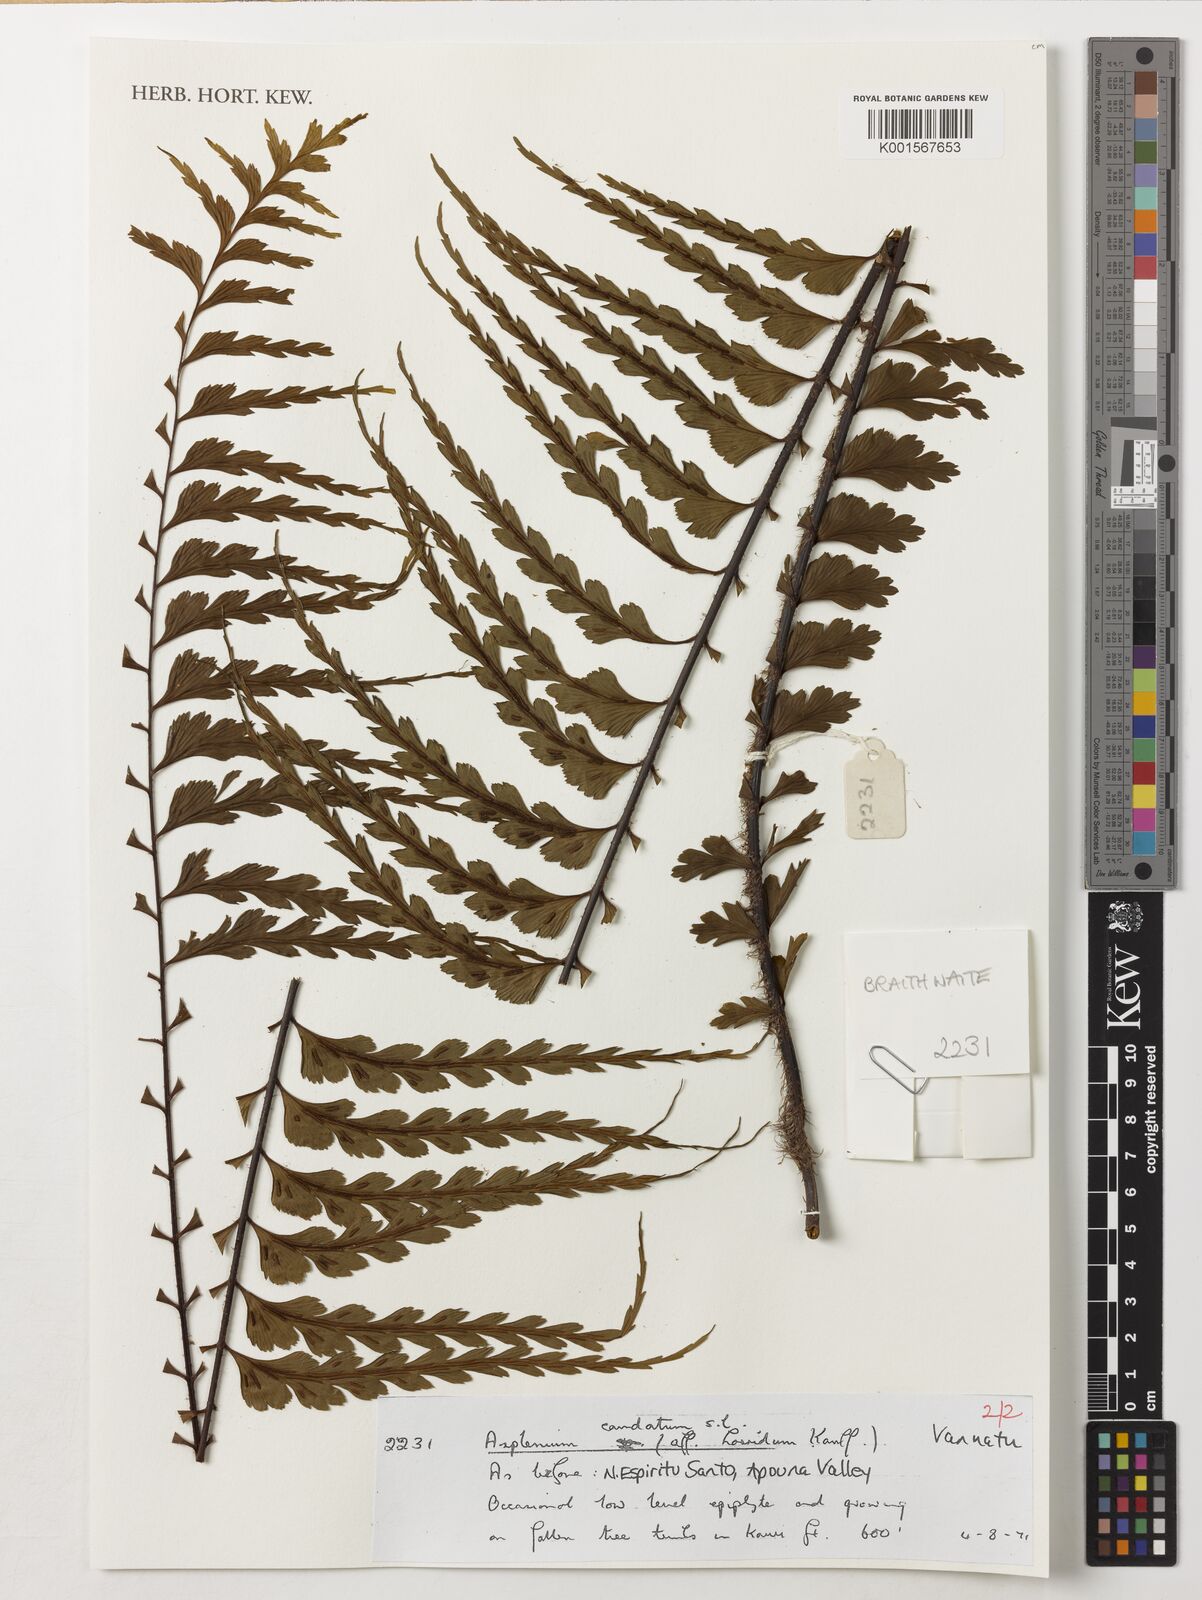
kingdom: Plantae
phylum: Tracheophyta
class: Polypodiopsida
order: Polypodiales
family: Aspleniaceae
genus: Asplenium
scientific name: Asplenium caudatum
